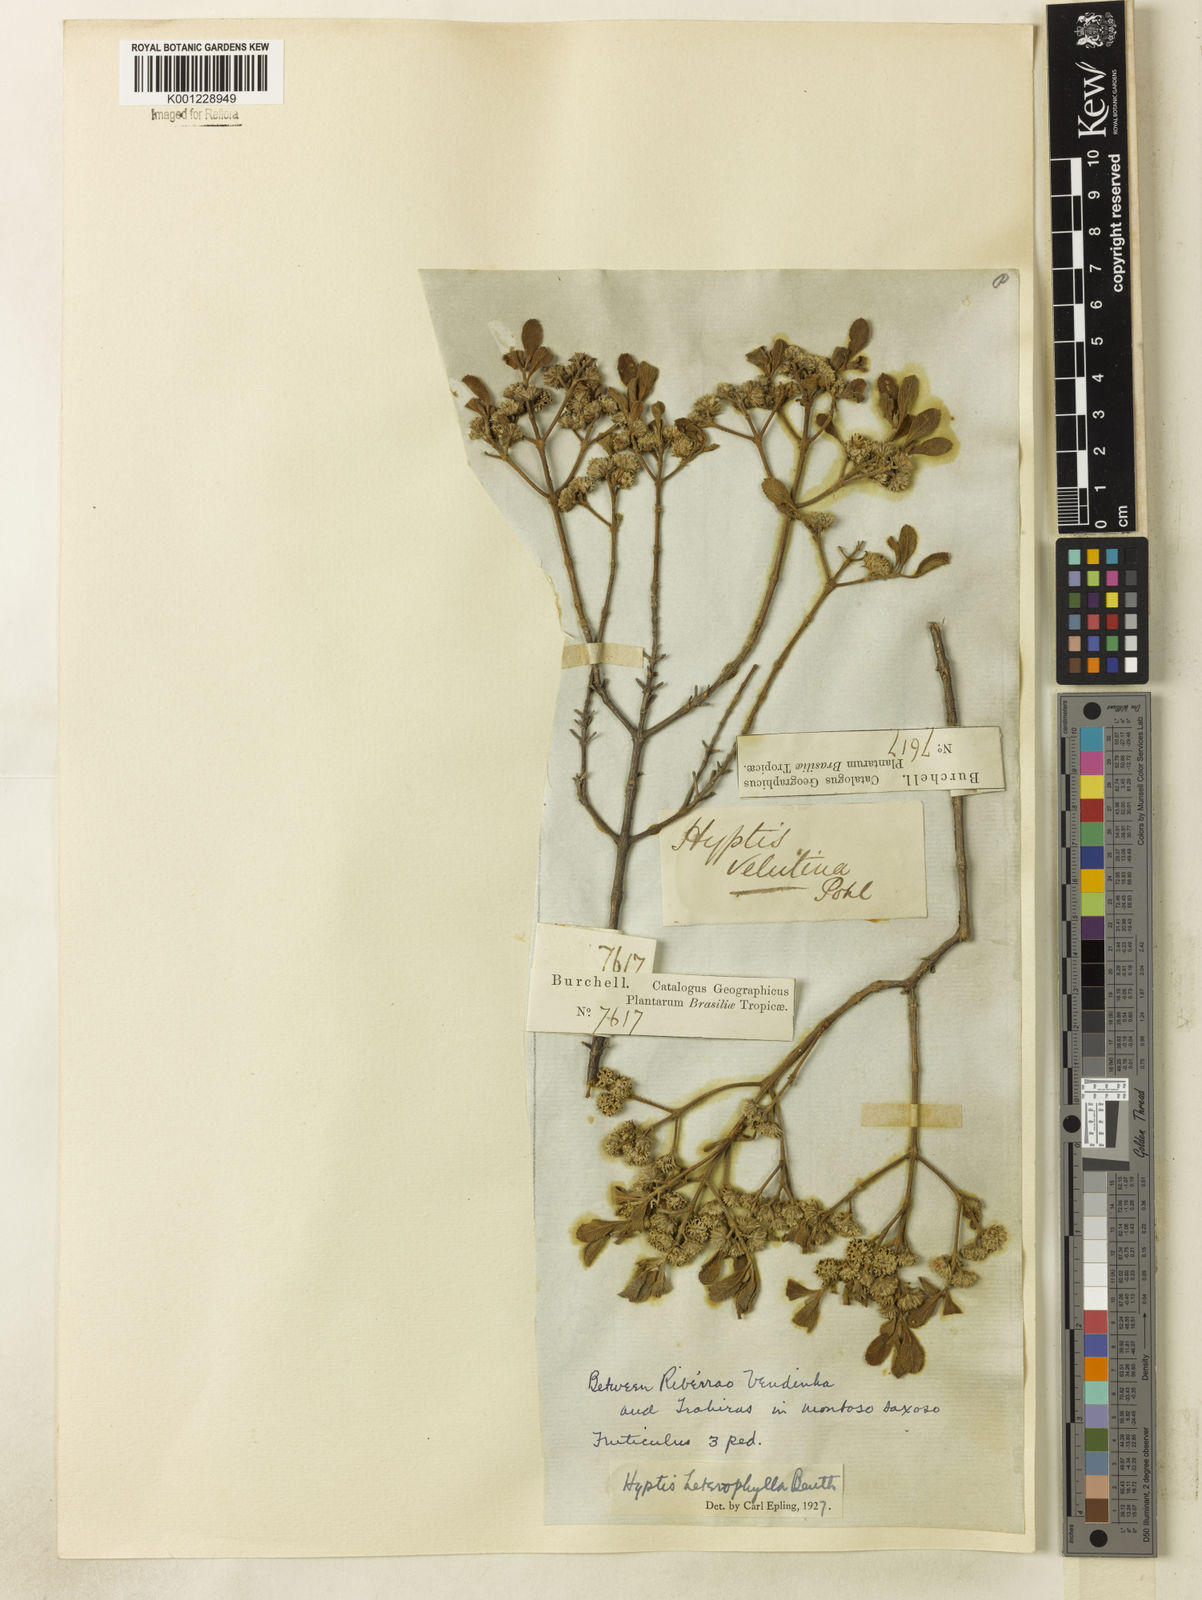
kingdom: Plantae
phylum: Tracheophyta
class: Magnoliopsida
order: Lamiales
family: Lamiaceae
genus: Hyptis
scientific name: Hyptis heterophylla
